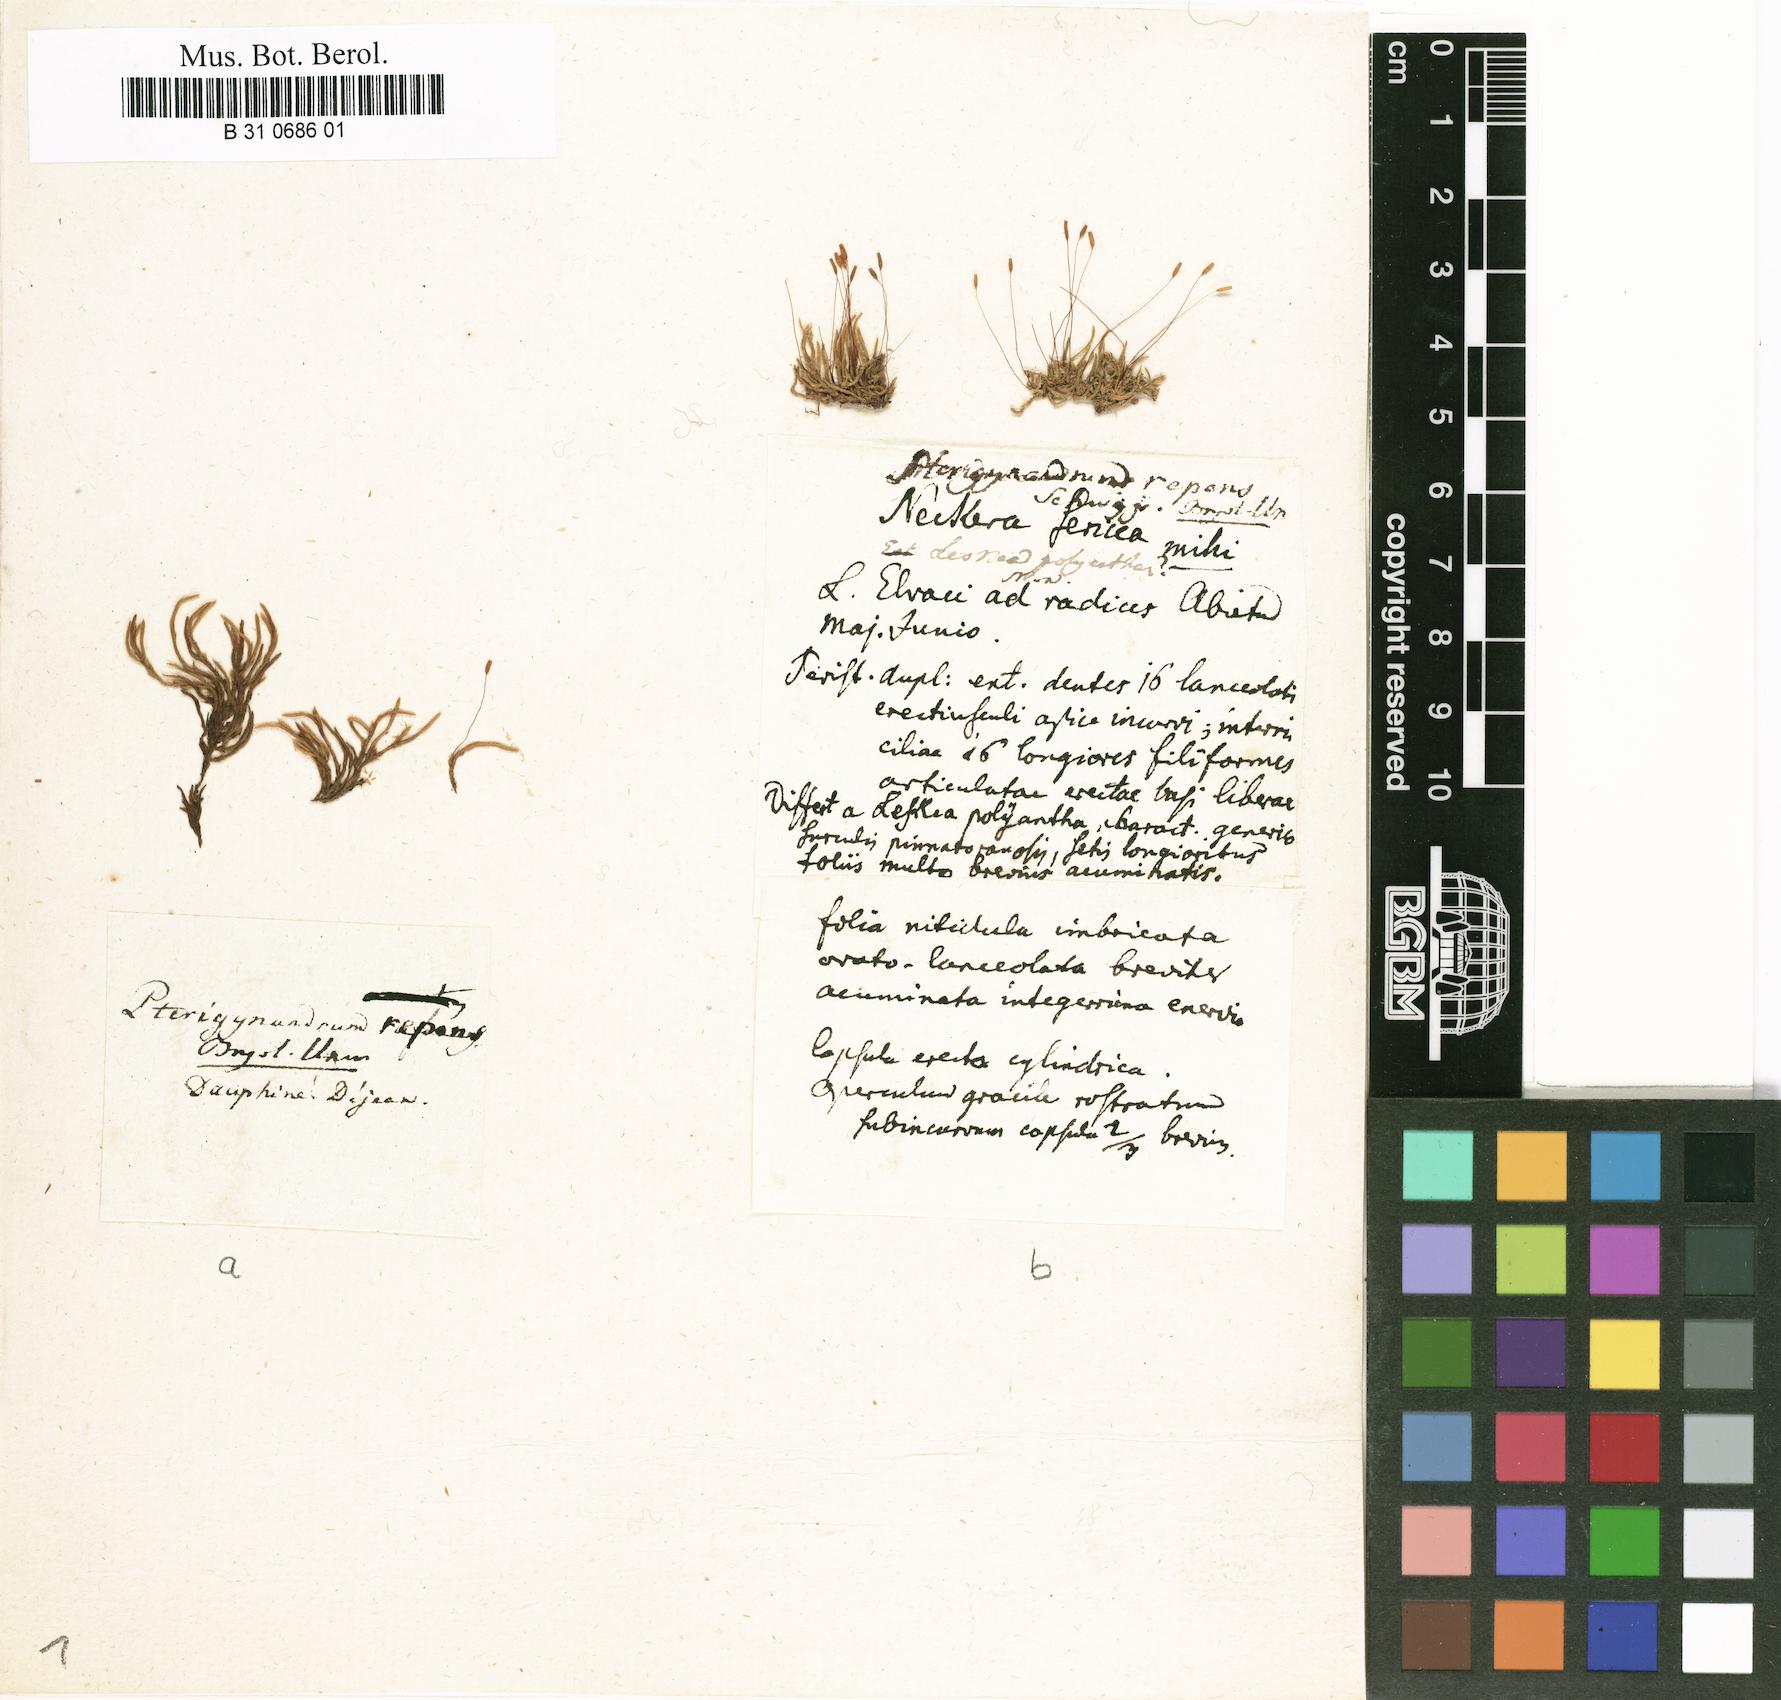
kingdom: Plantae
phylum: Bryophyta
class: Bryopsida
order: Hypnales
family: Pylaisiadelphaceae
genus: Platygyrium
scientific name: Platygyrium repens
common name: Flat-brocade moss
